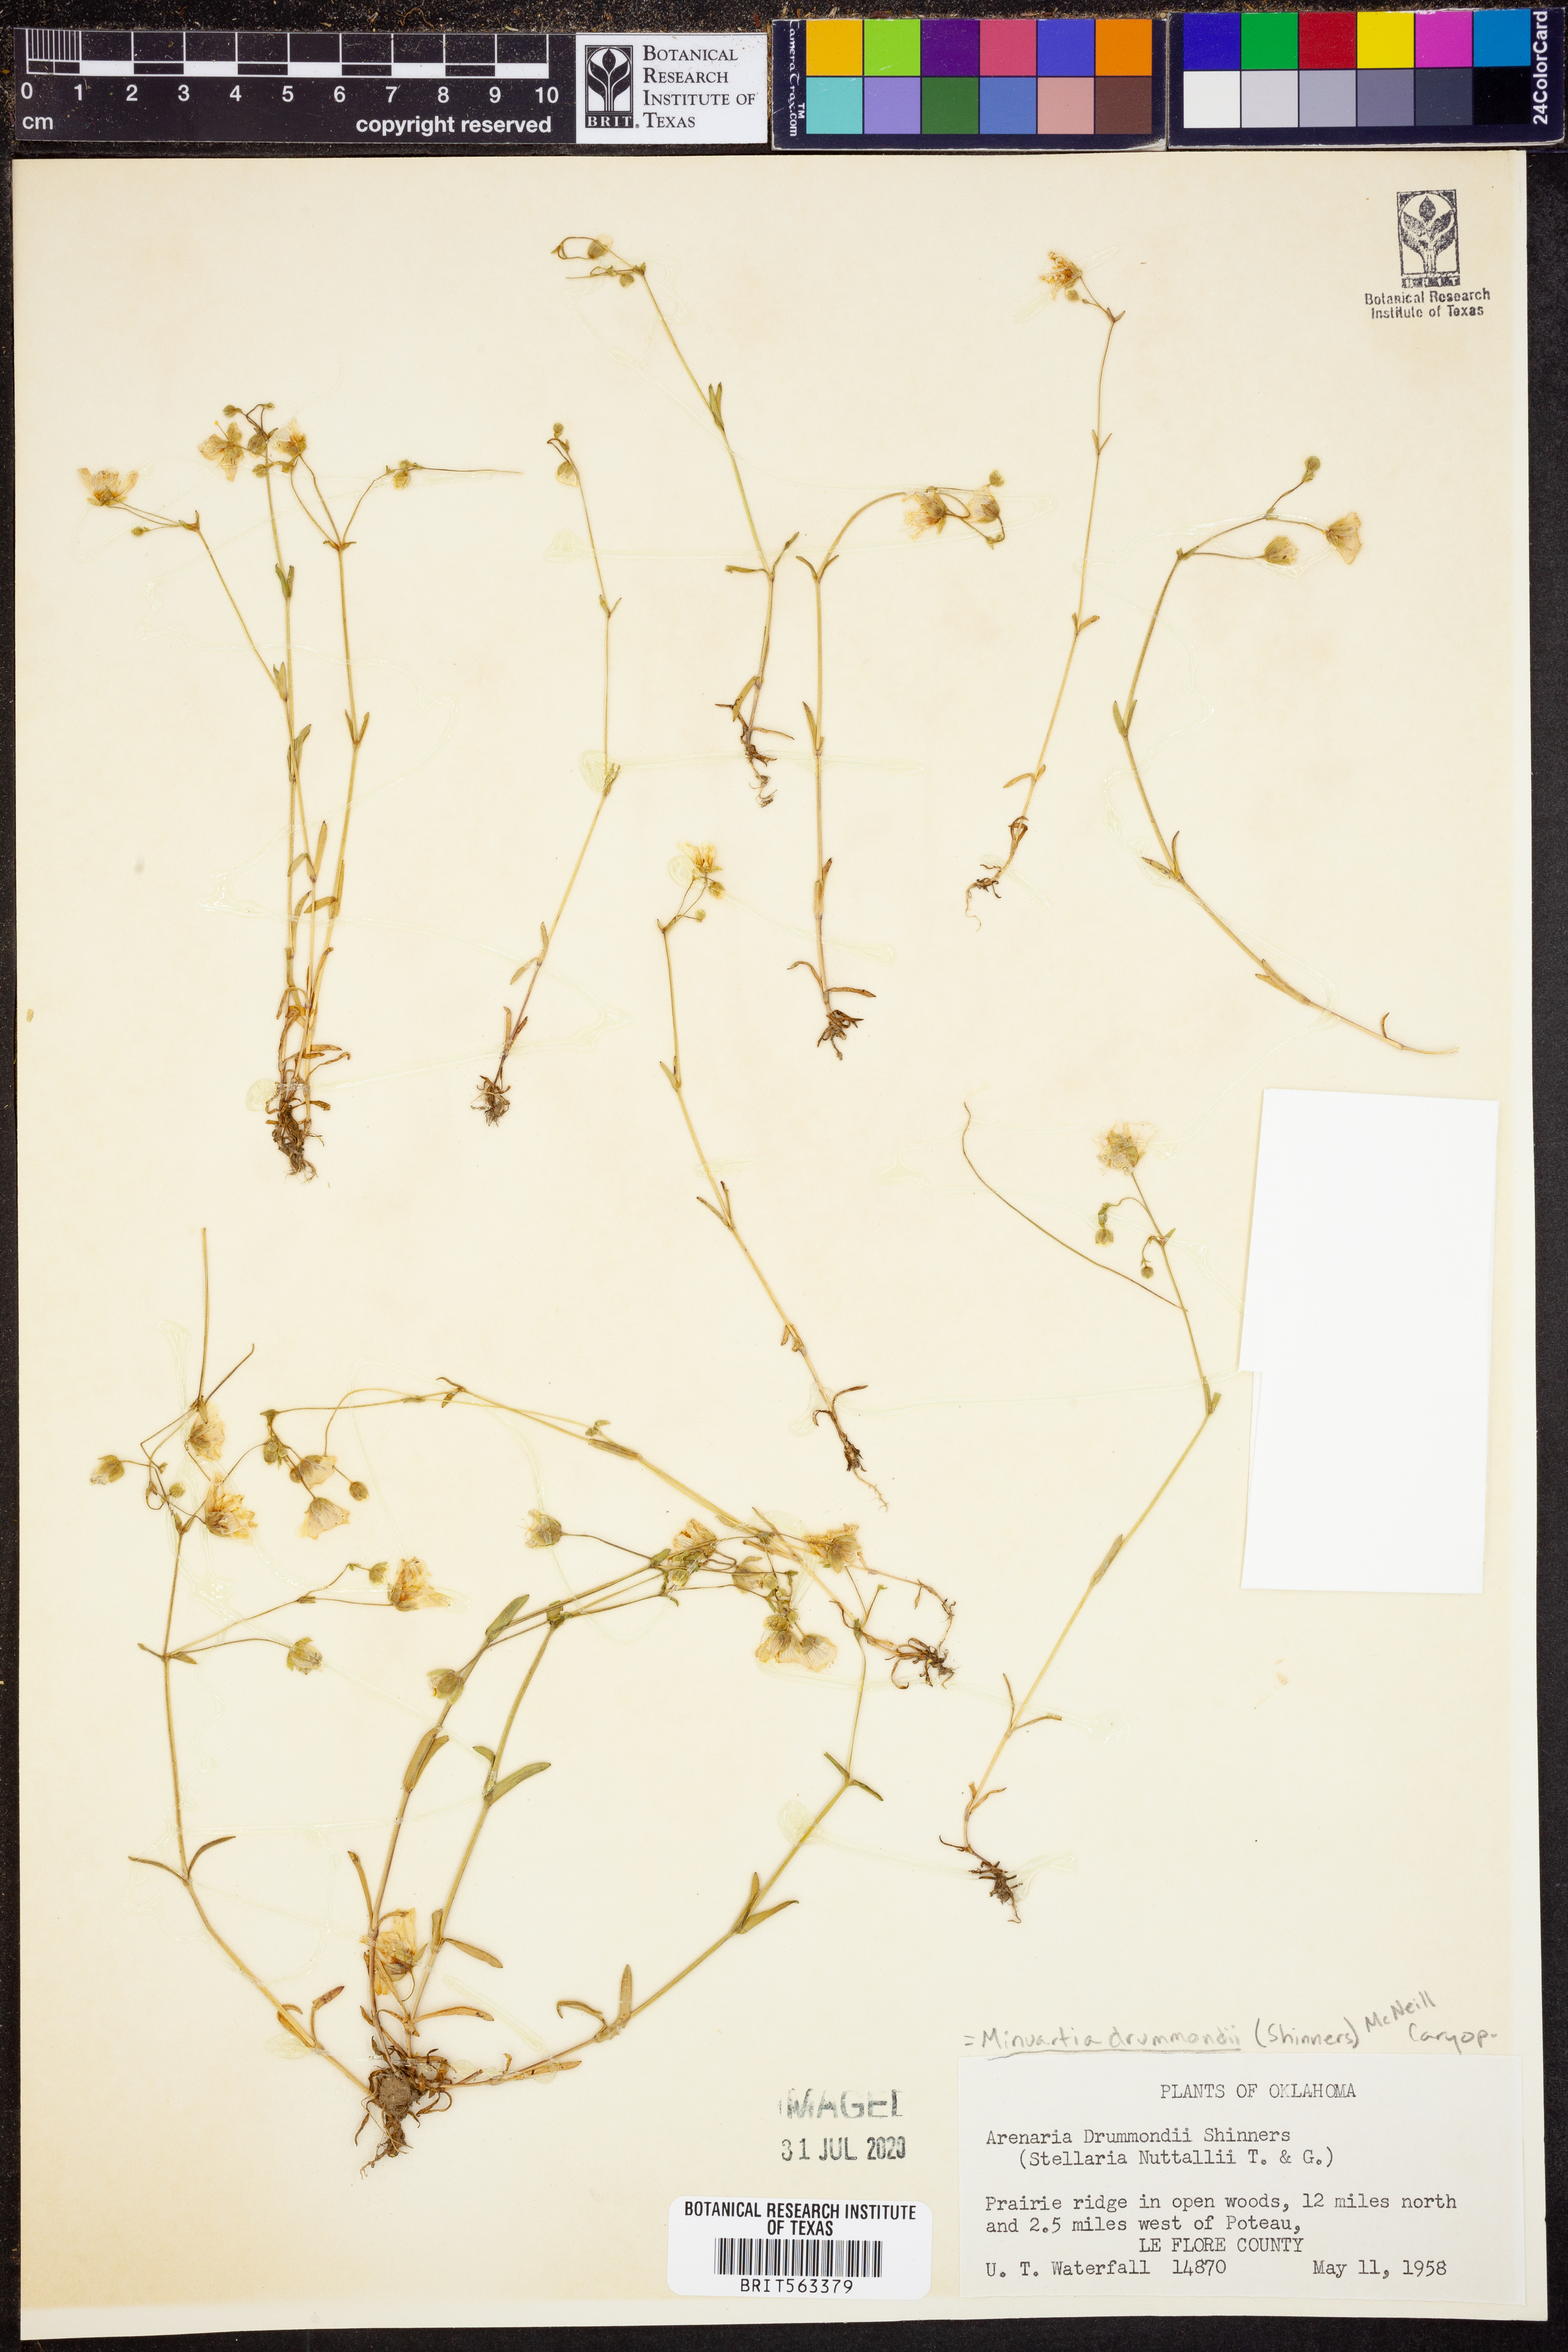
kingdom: Plantae
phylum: Tracheophyta
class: Magnoliopsida
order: Caryophyllales
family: Caryophyllaceae
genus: Geocarpon
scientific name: Geocarpon nuttallii
